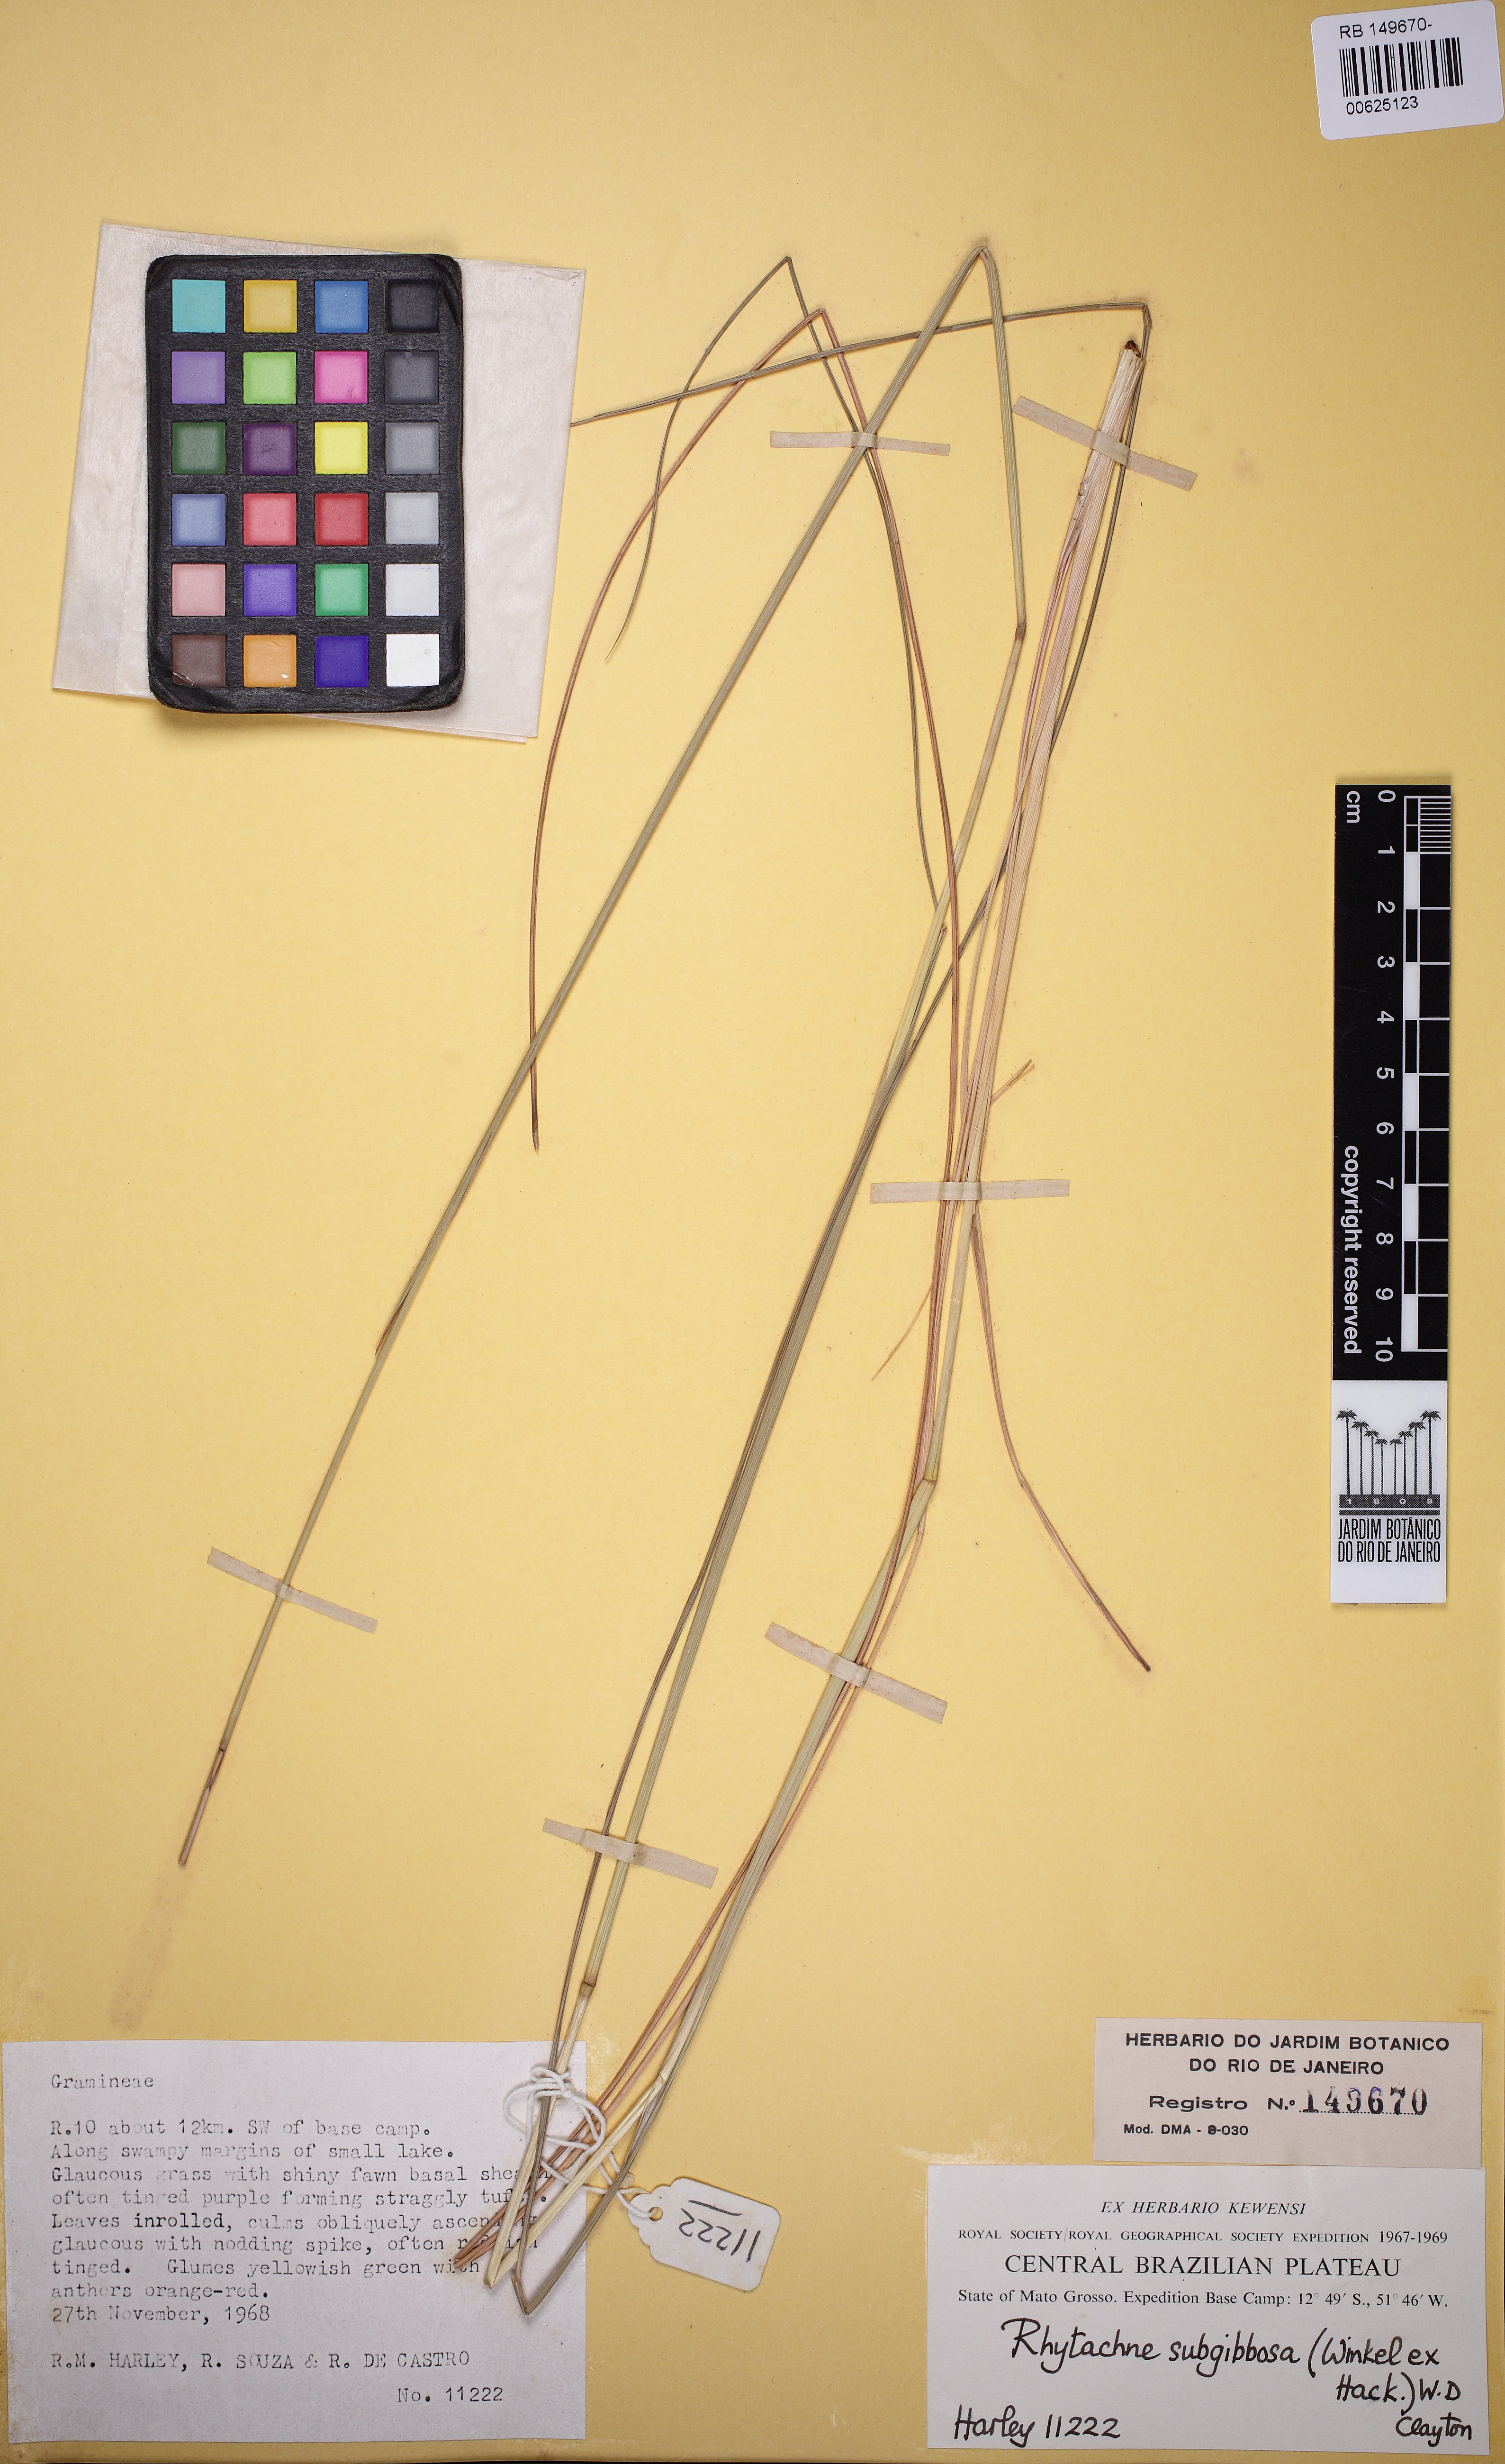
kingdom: Plantae
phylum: Tracheophyta
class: Liliopsida
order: Poales
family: Poaceae
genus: Rhytachne
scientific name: Rhytachne subgibbosa
